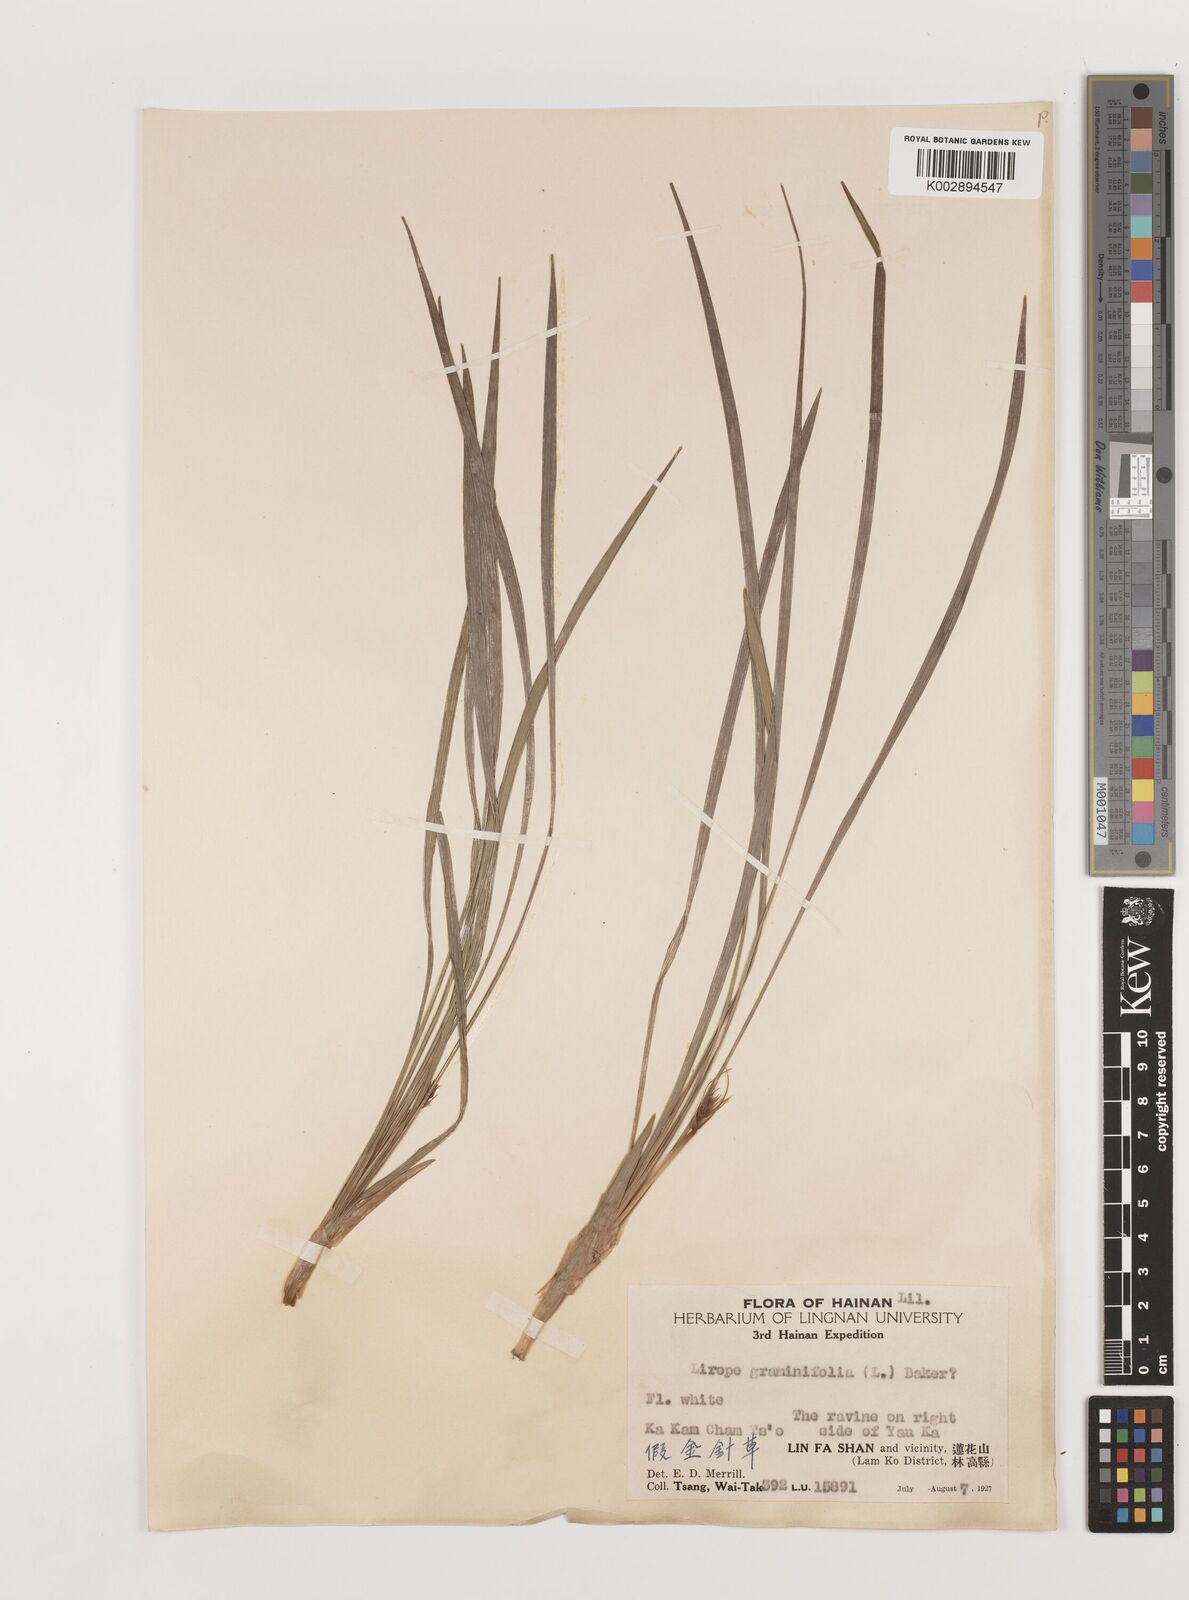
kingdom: Plantae
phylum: Tracheophyta
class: Liliopsida
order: Asparagales
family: Asparagaceae
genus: Liriope
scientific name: Liriope spicata
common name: Creeping liriope
